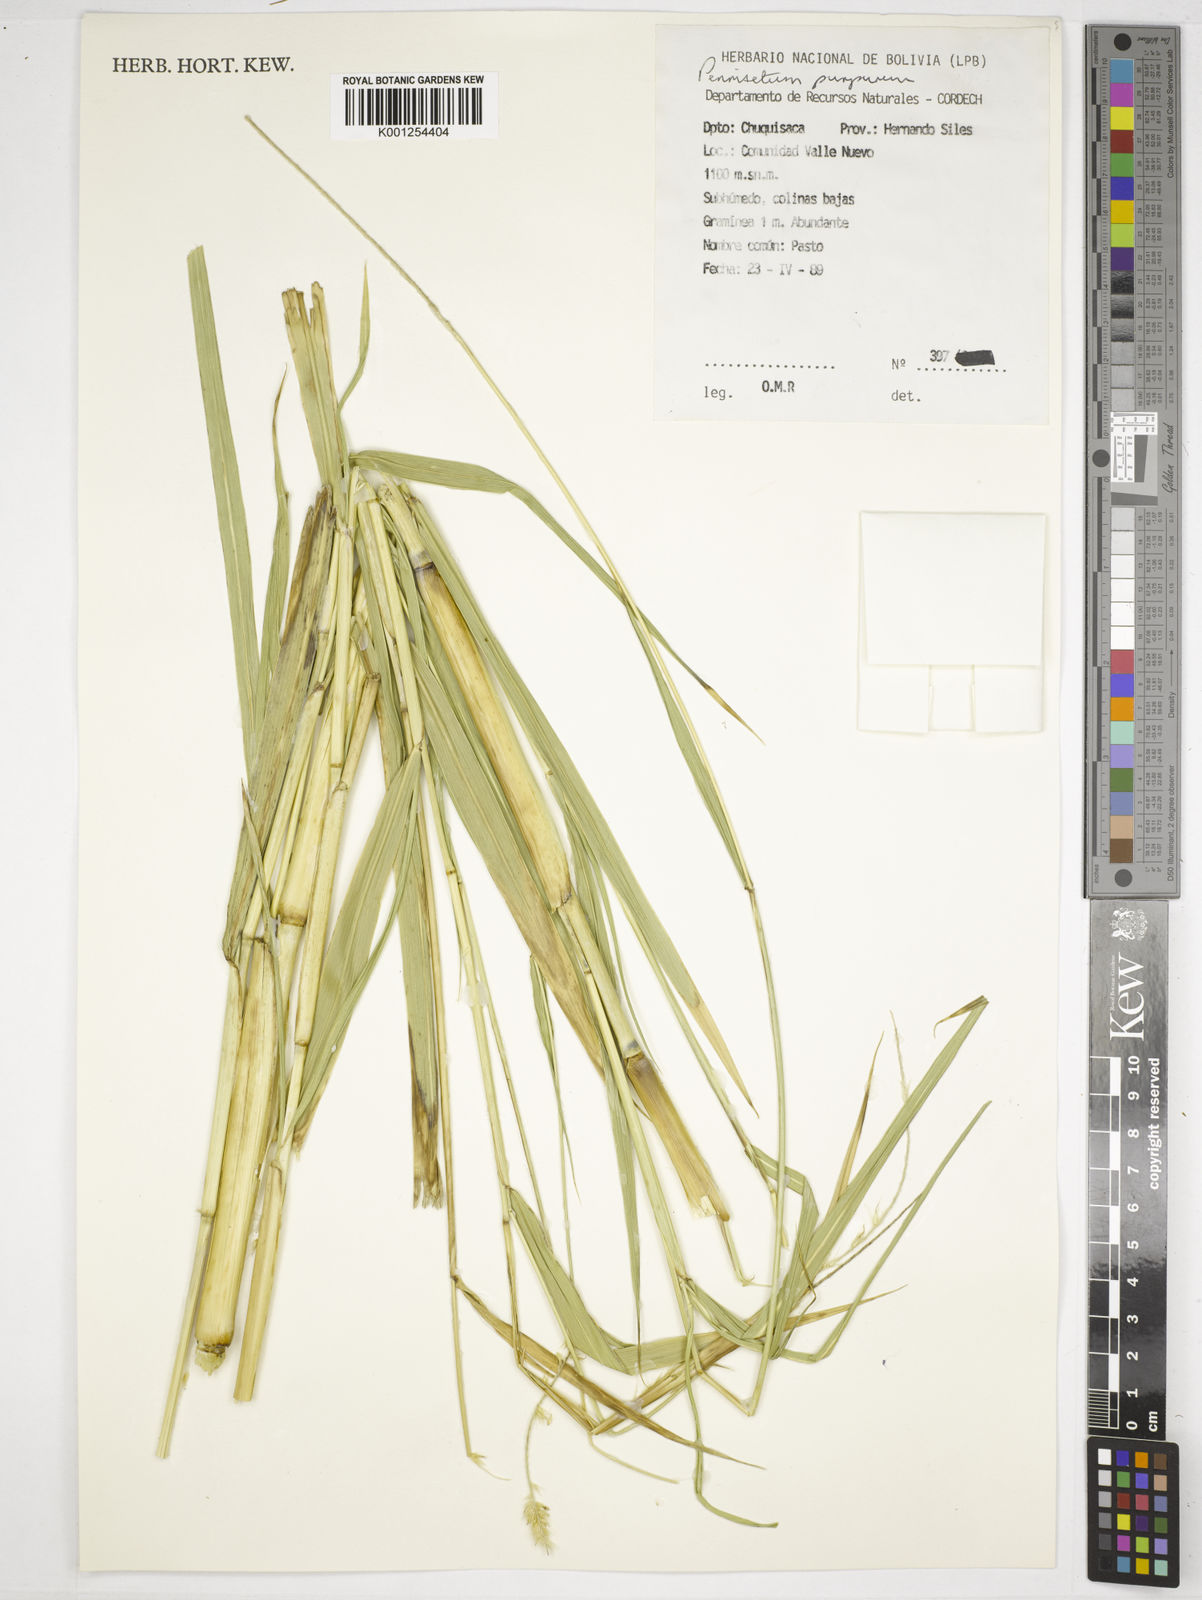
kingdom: Plantae
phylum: Tracheophyta
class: Liliopsida
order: Poales
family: Poaceae
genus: Cenchrus
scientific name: Cenchrus purpureus
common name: Elephant grass
